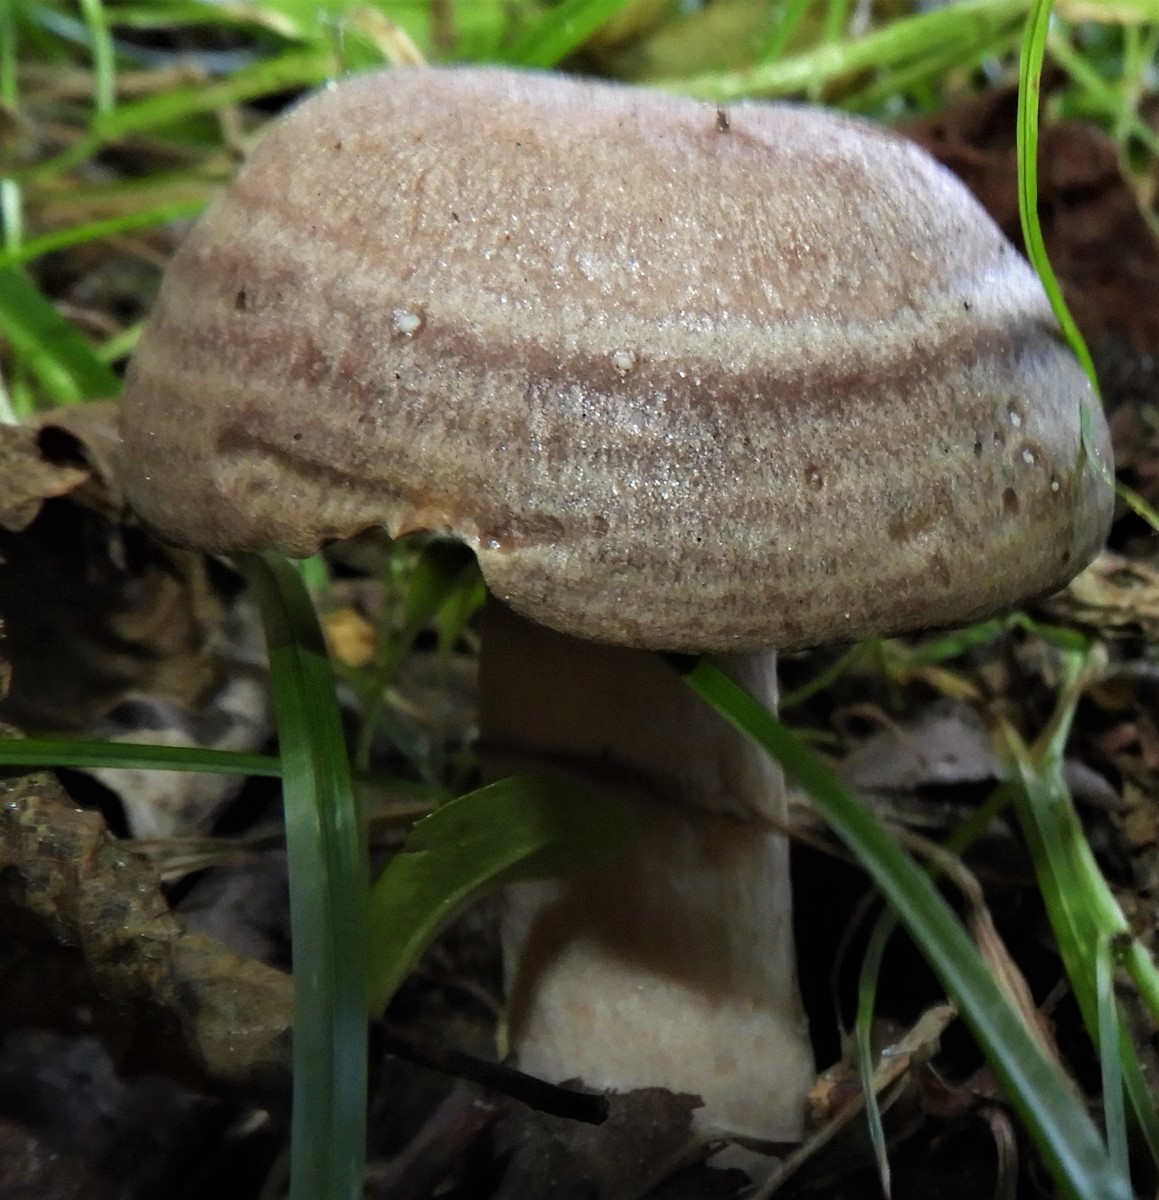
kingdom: Fungi
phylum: Basidiomycota
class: Agaricomycetes
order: Russulales
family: Russulaceae
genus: Lactarius
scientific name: Lactarius circellatus
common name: avnbøg-mælkehat
